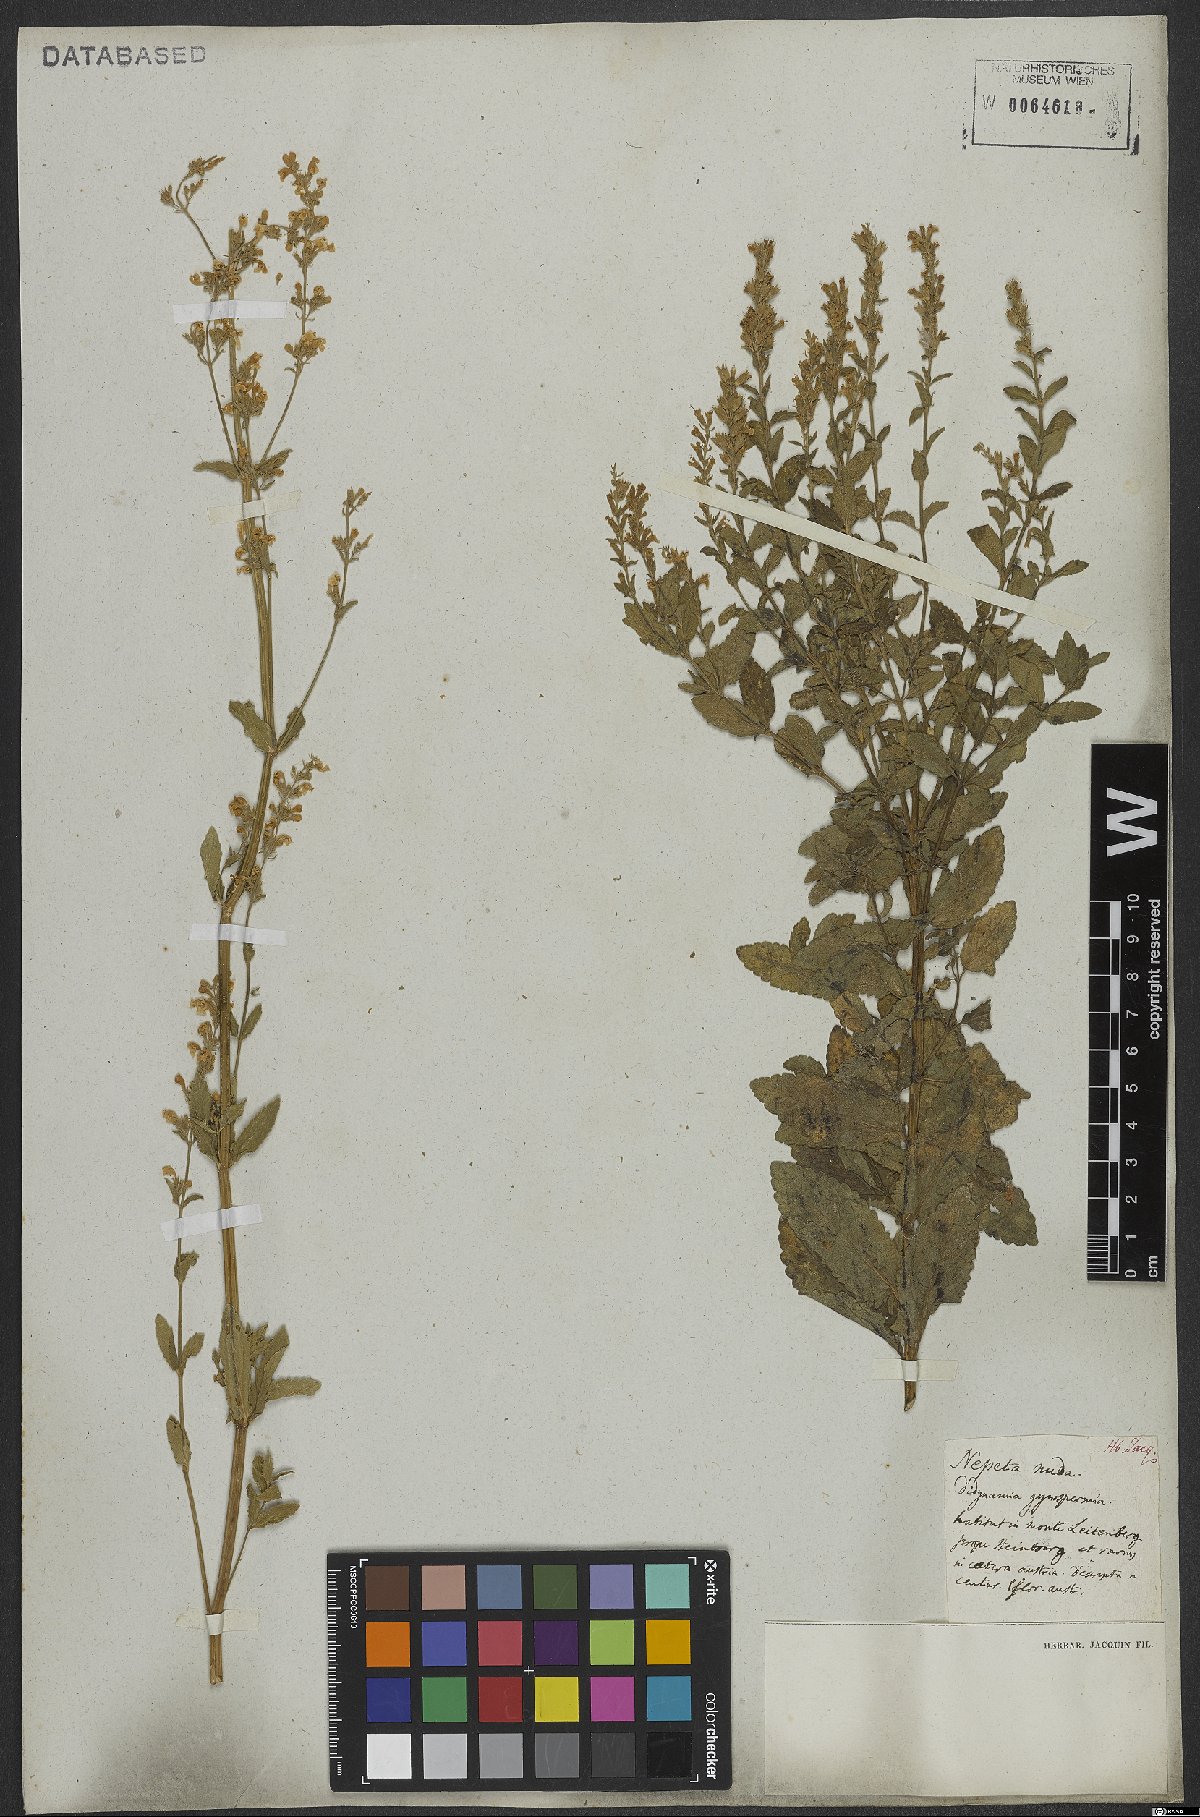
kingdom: Plantae
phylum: Tracheophyta
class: Magnoliopsida
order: Lamiales
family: Lamiaceae
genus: Nepeta
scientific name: Nepeta nuda
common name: Hairless catmint
